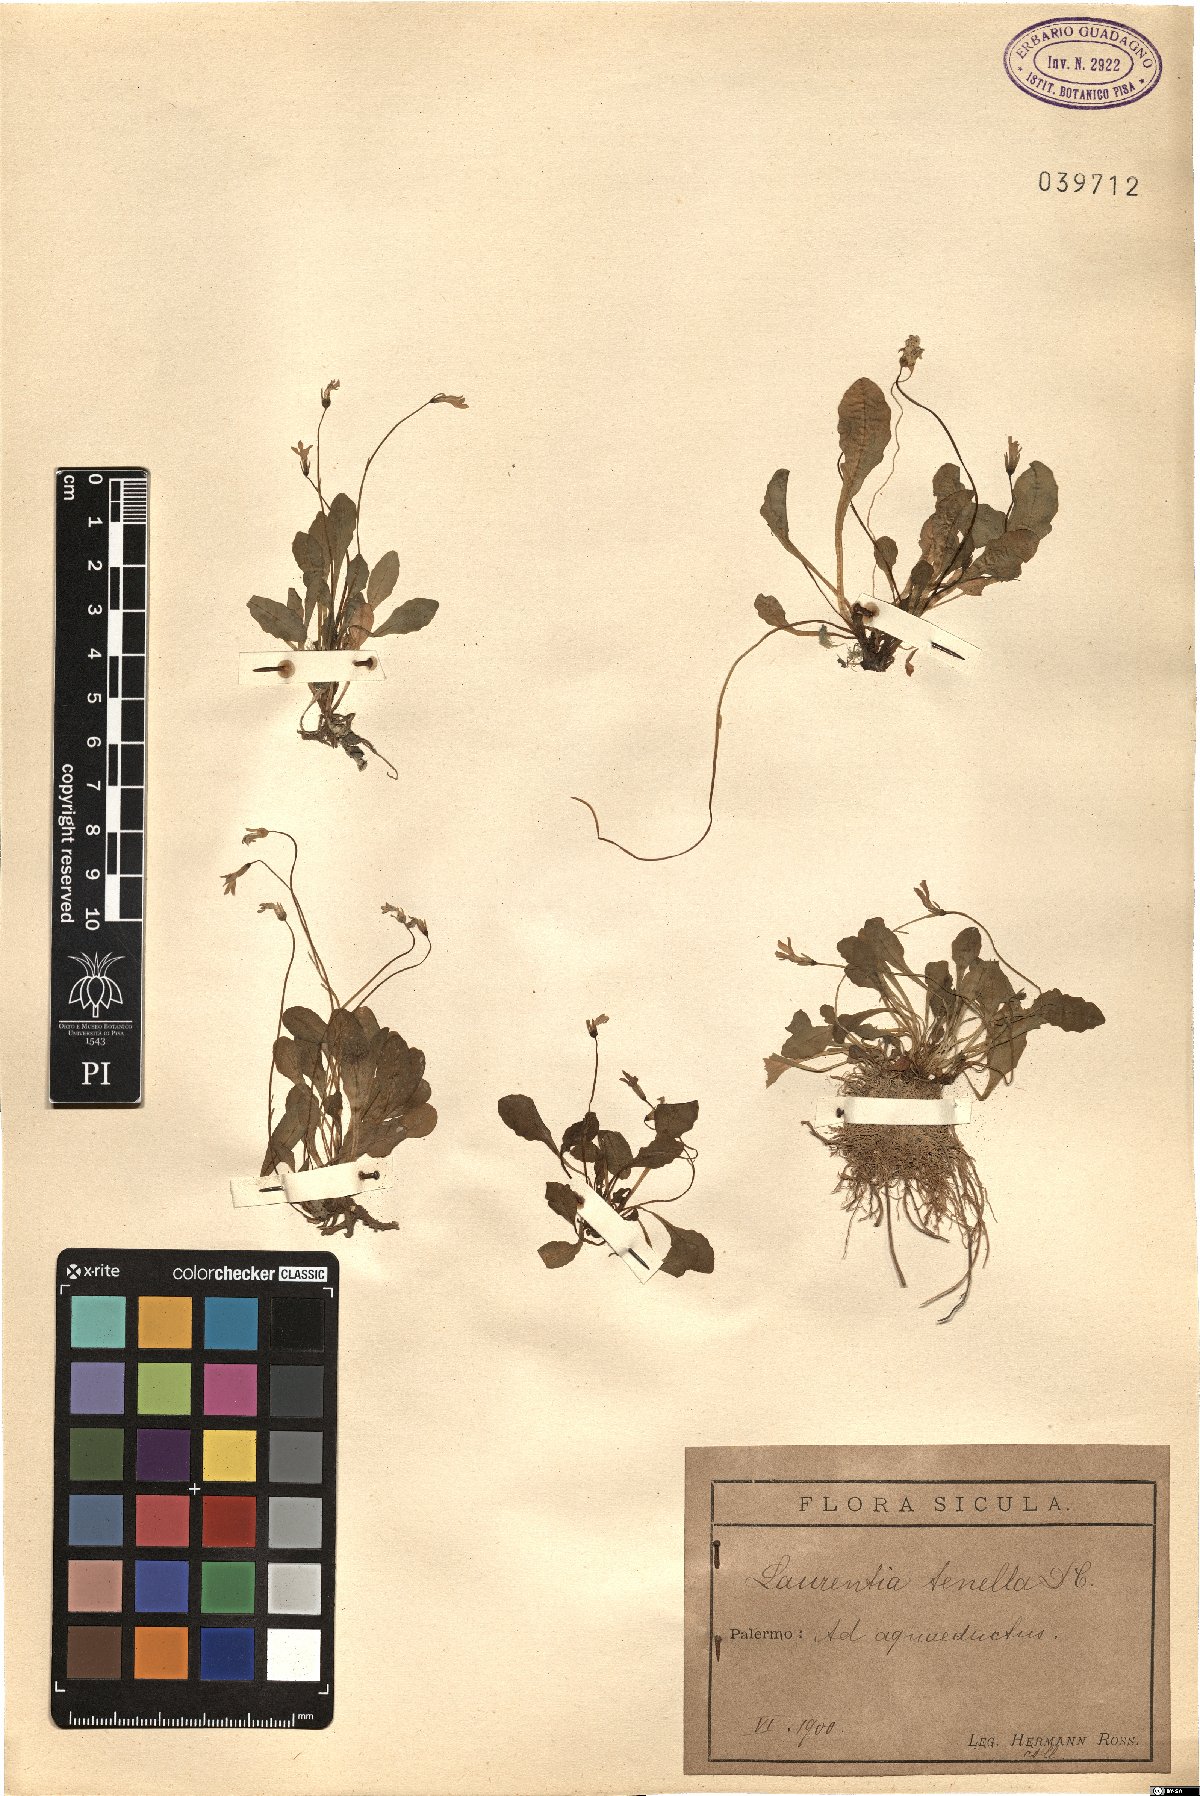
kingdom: Plantae
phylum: Tracheophyta
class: Magnoliopsida
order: Asterales
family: Campanulaceae
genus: Solenopsis
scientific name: Solenopsis bivonae
